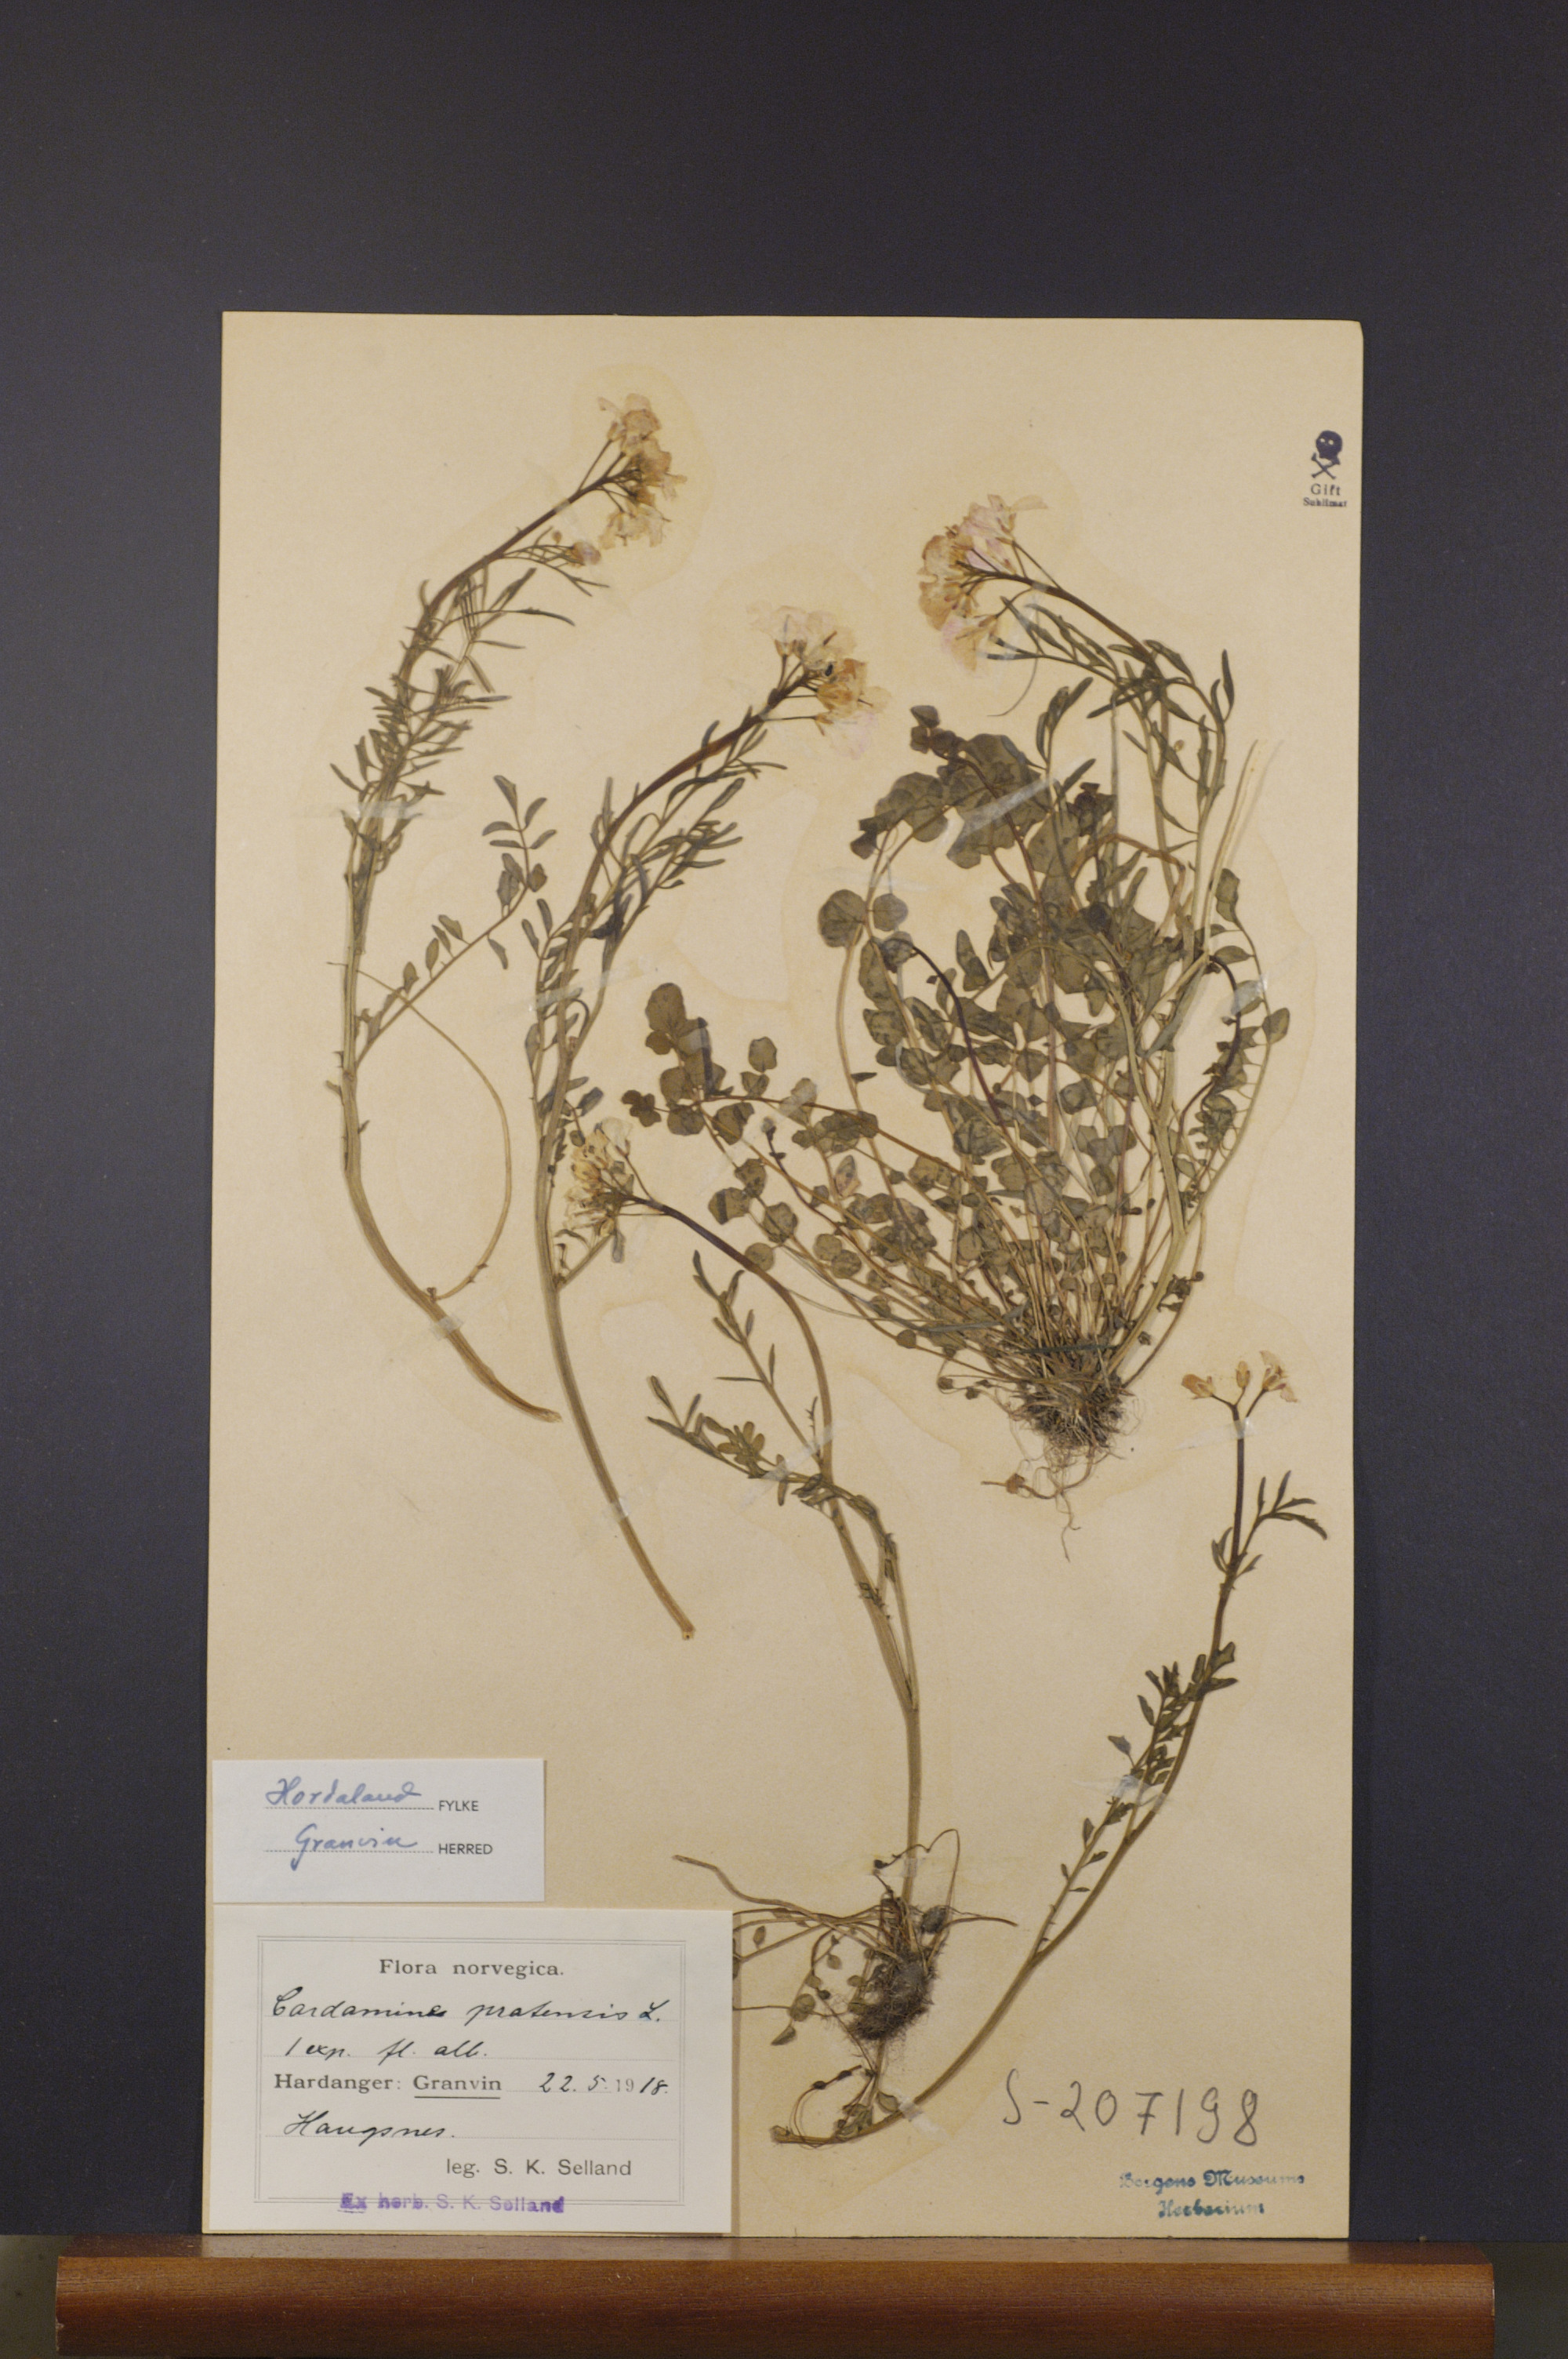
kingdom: Plantae
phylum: Tracheophyta
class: Magnoliopsida
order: Brassicales
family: Brassicaceae
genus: Cardamine
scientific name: Cardamine pratensis
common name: Cuckoo flower
